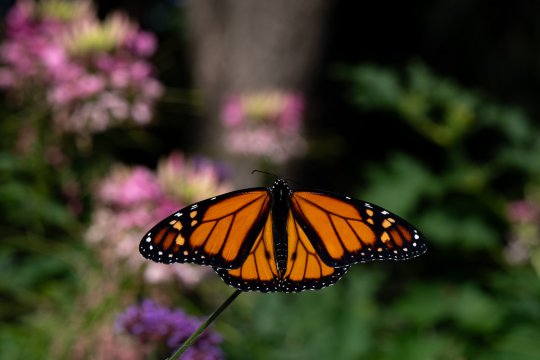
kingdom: Animalia
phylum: Arthropoda
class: Insecta
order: Lepidoptera
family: Nymphalidae
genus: Danaus
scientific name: Danaus plexippus
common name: Monarch
